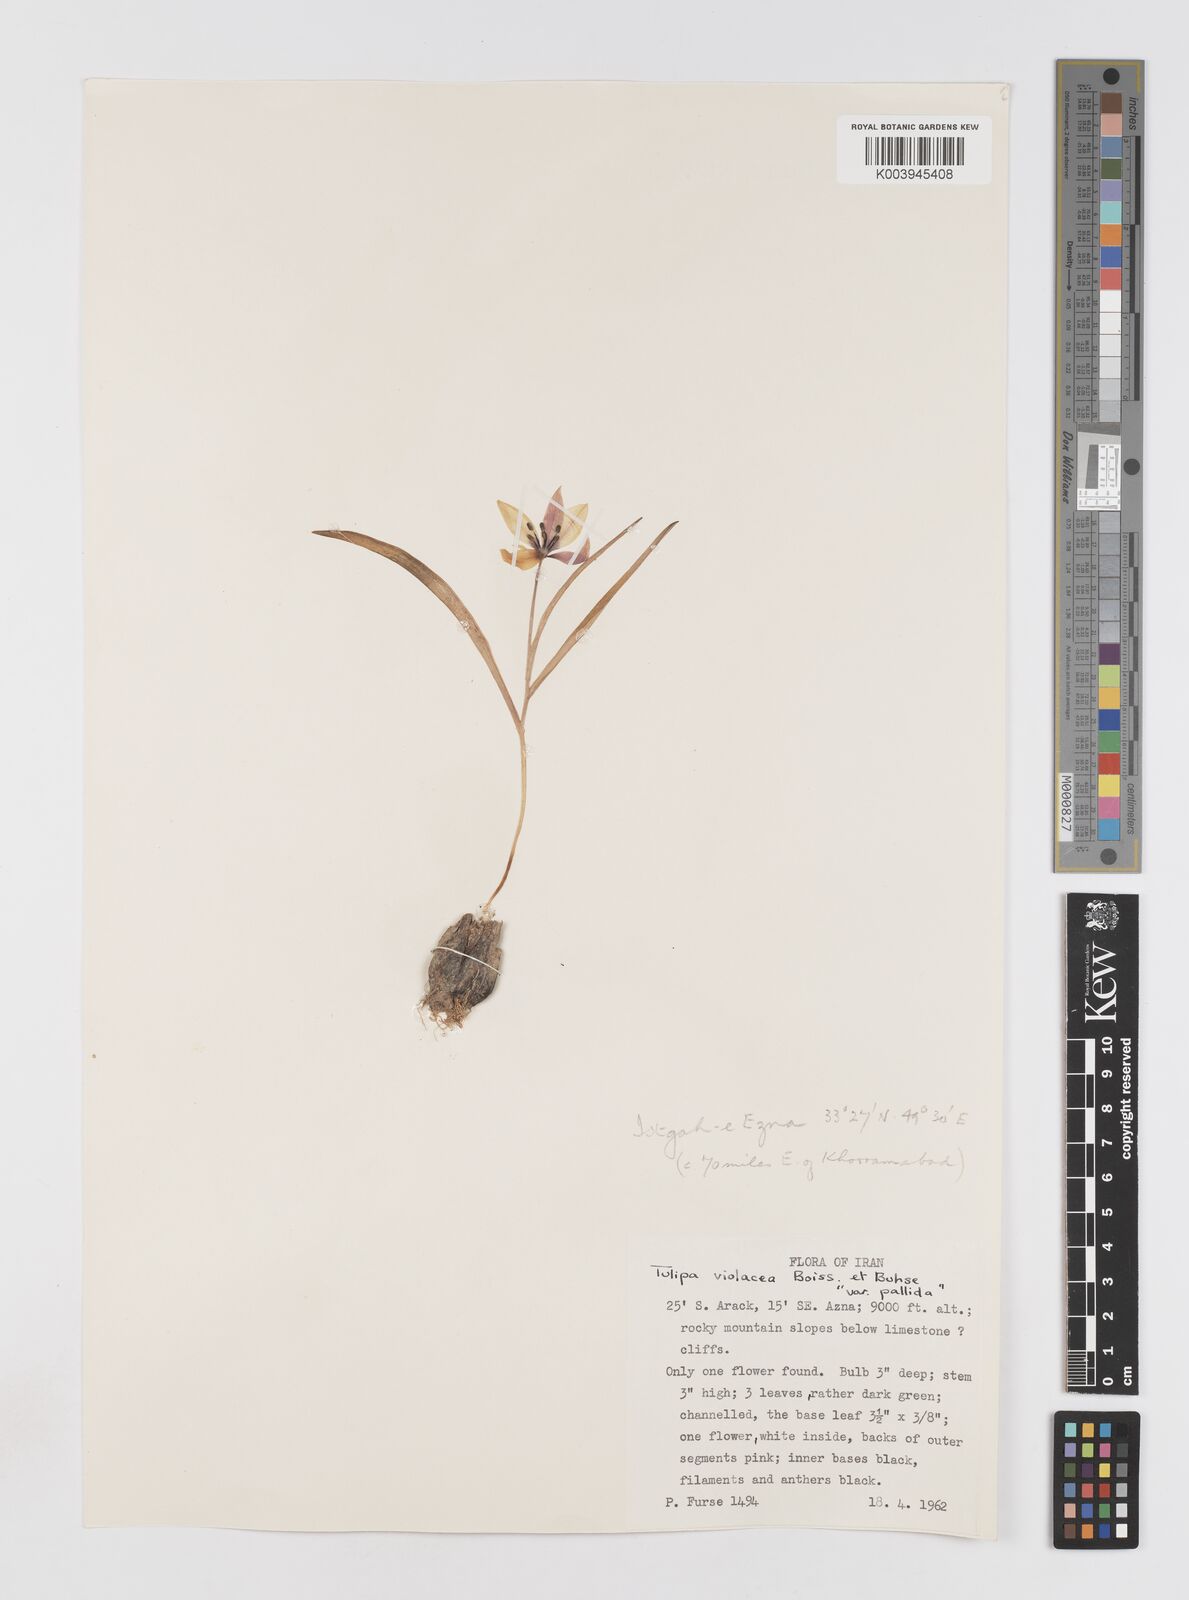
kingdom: Plantae
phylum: Tracheophyta
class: Liliopsida
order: Liliales
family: Liliaceae
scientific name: Liliaceae
